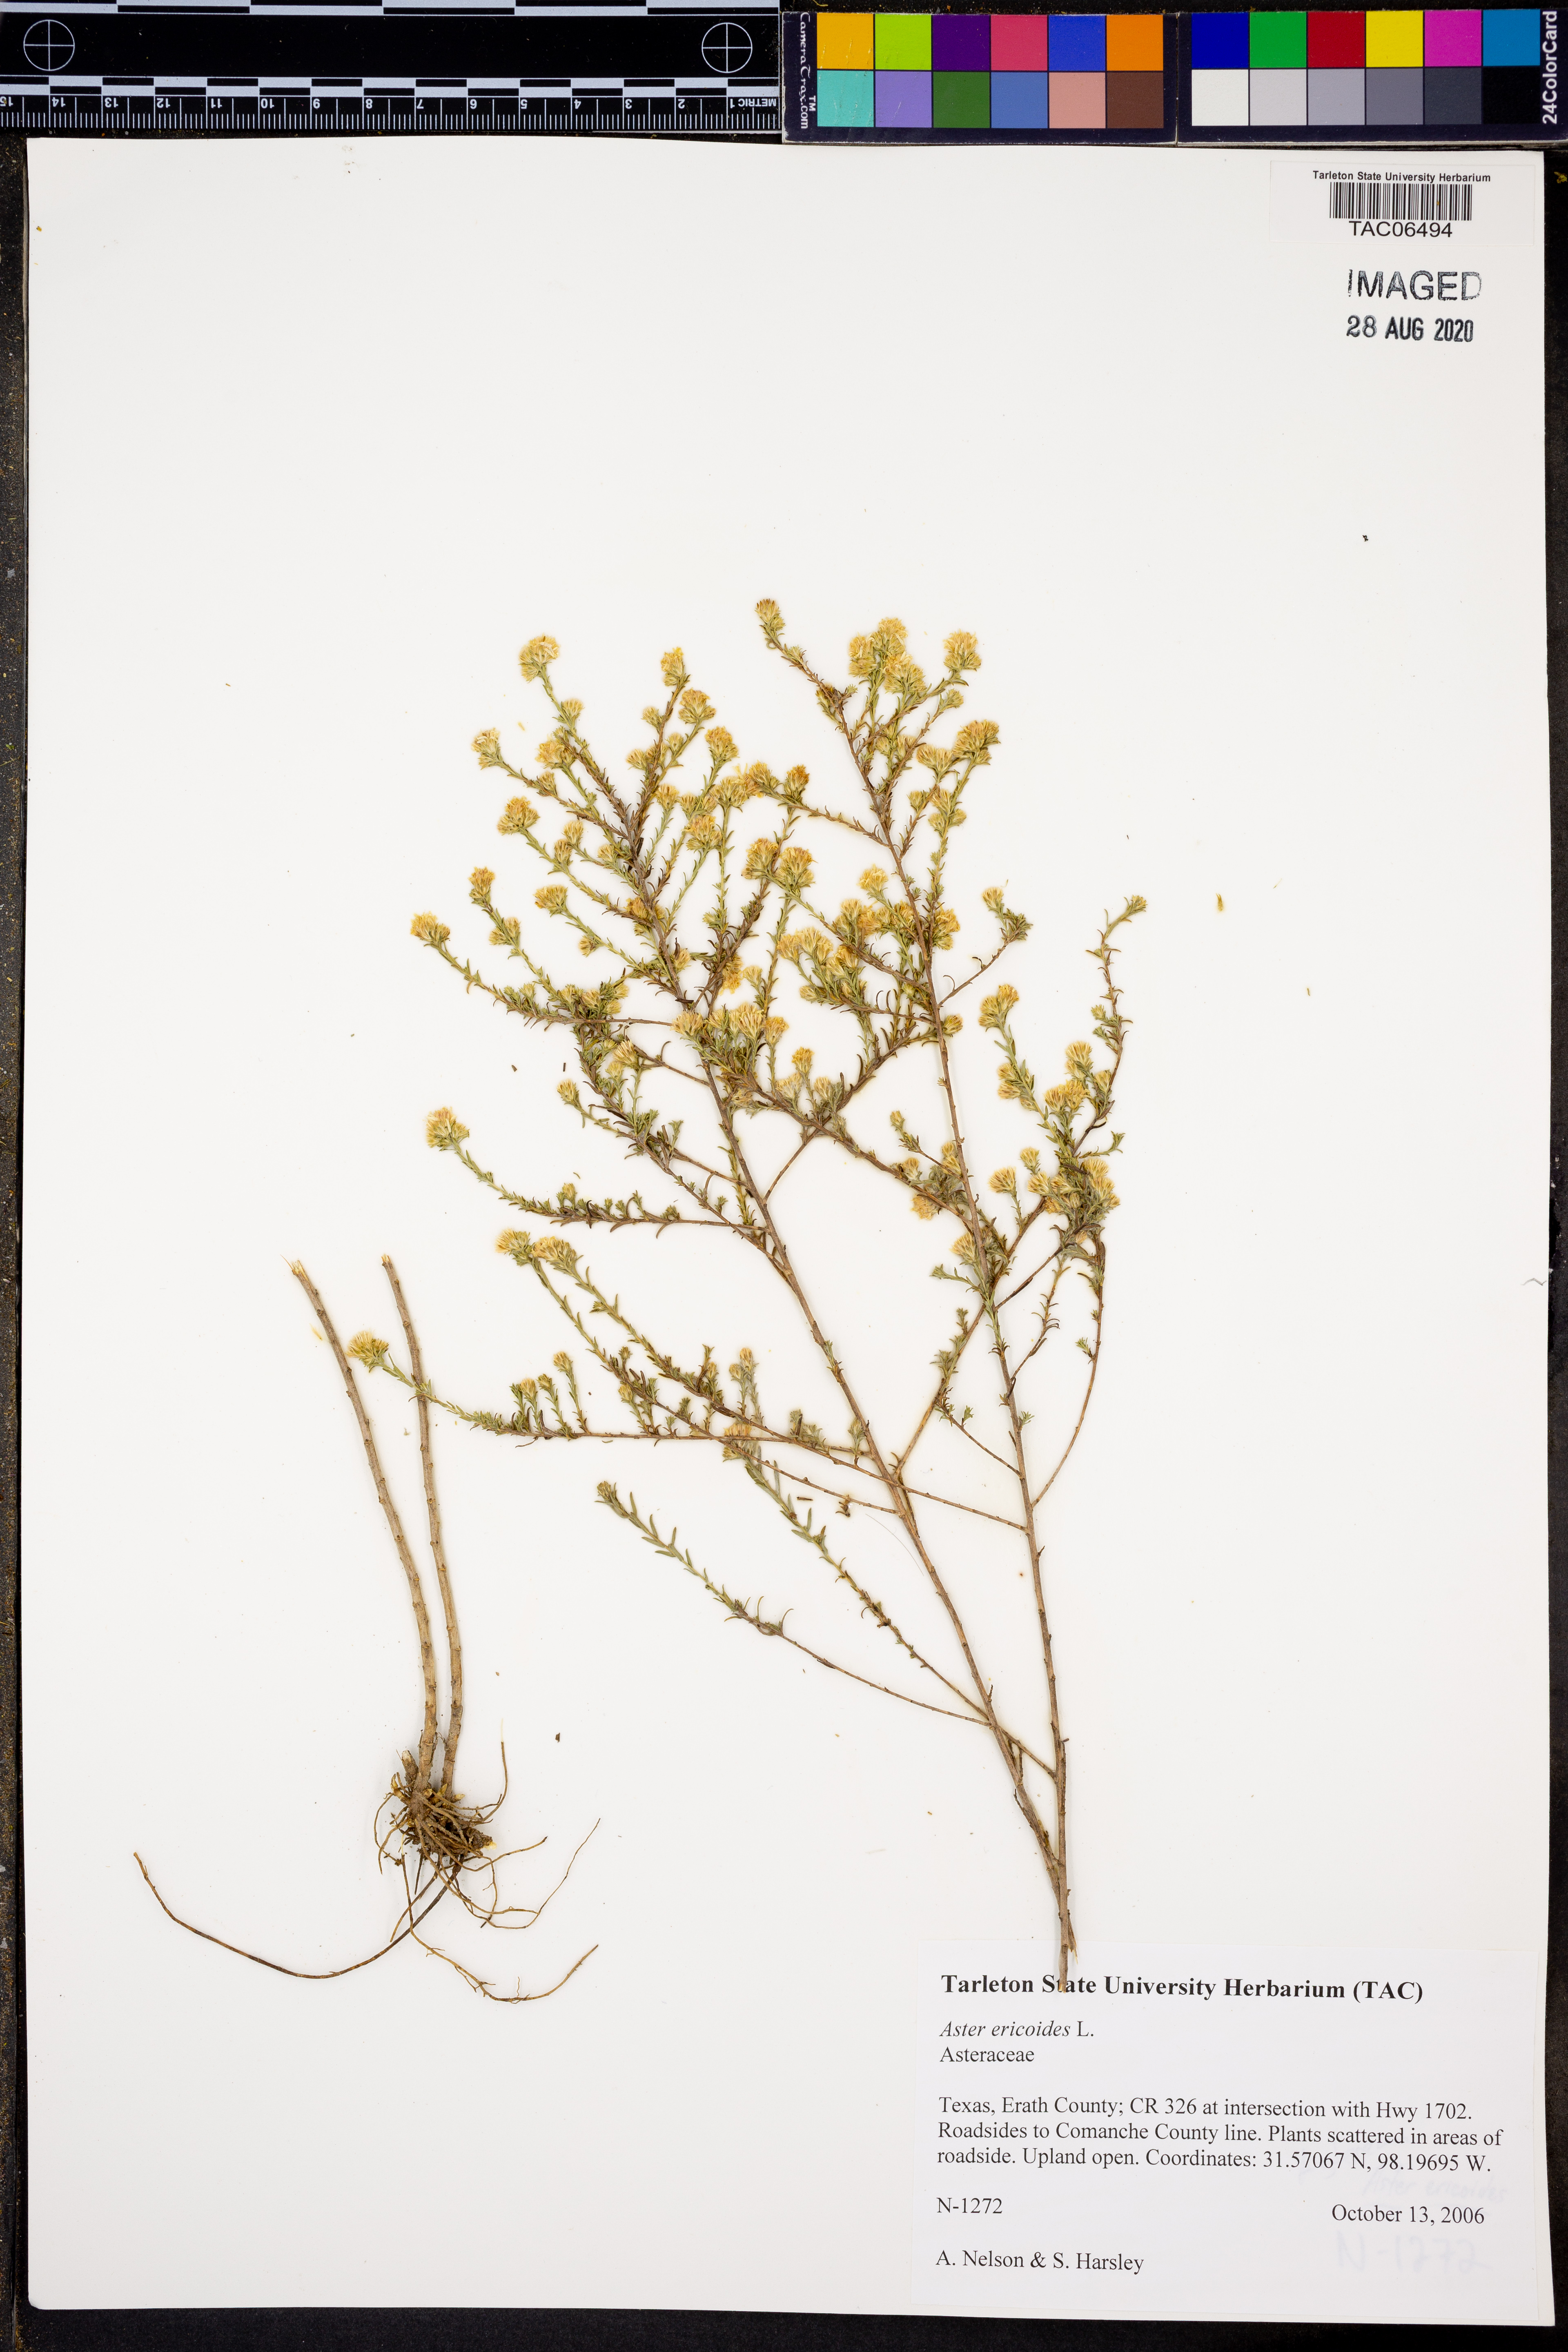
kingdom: Plantae
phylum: Tracheophyta
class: Magnoliopsida
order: Asterales
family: Asteraceae
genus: Symphyotrichum
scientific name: Symphyotrichum ericoides
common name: Heath aster
